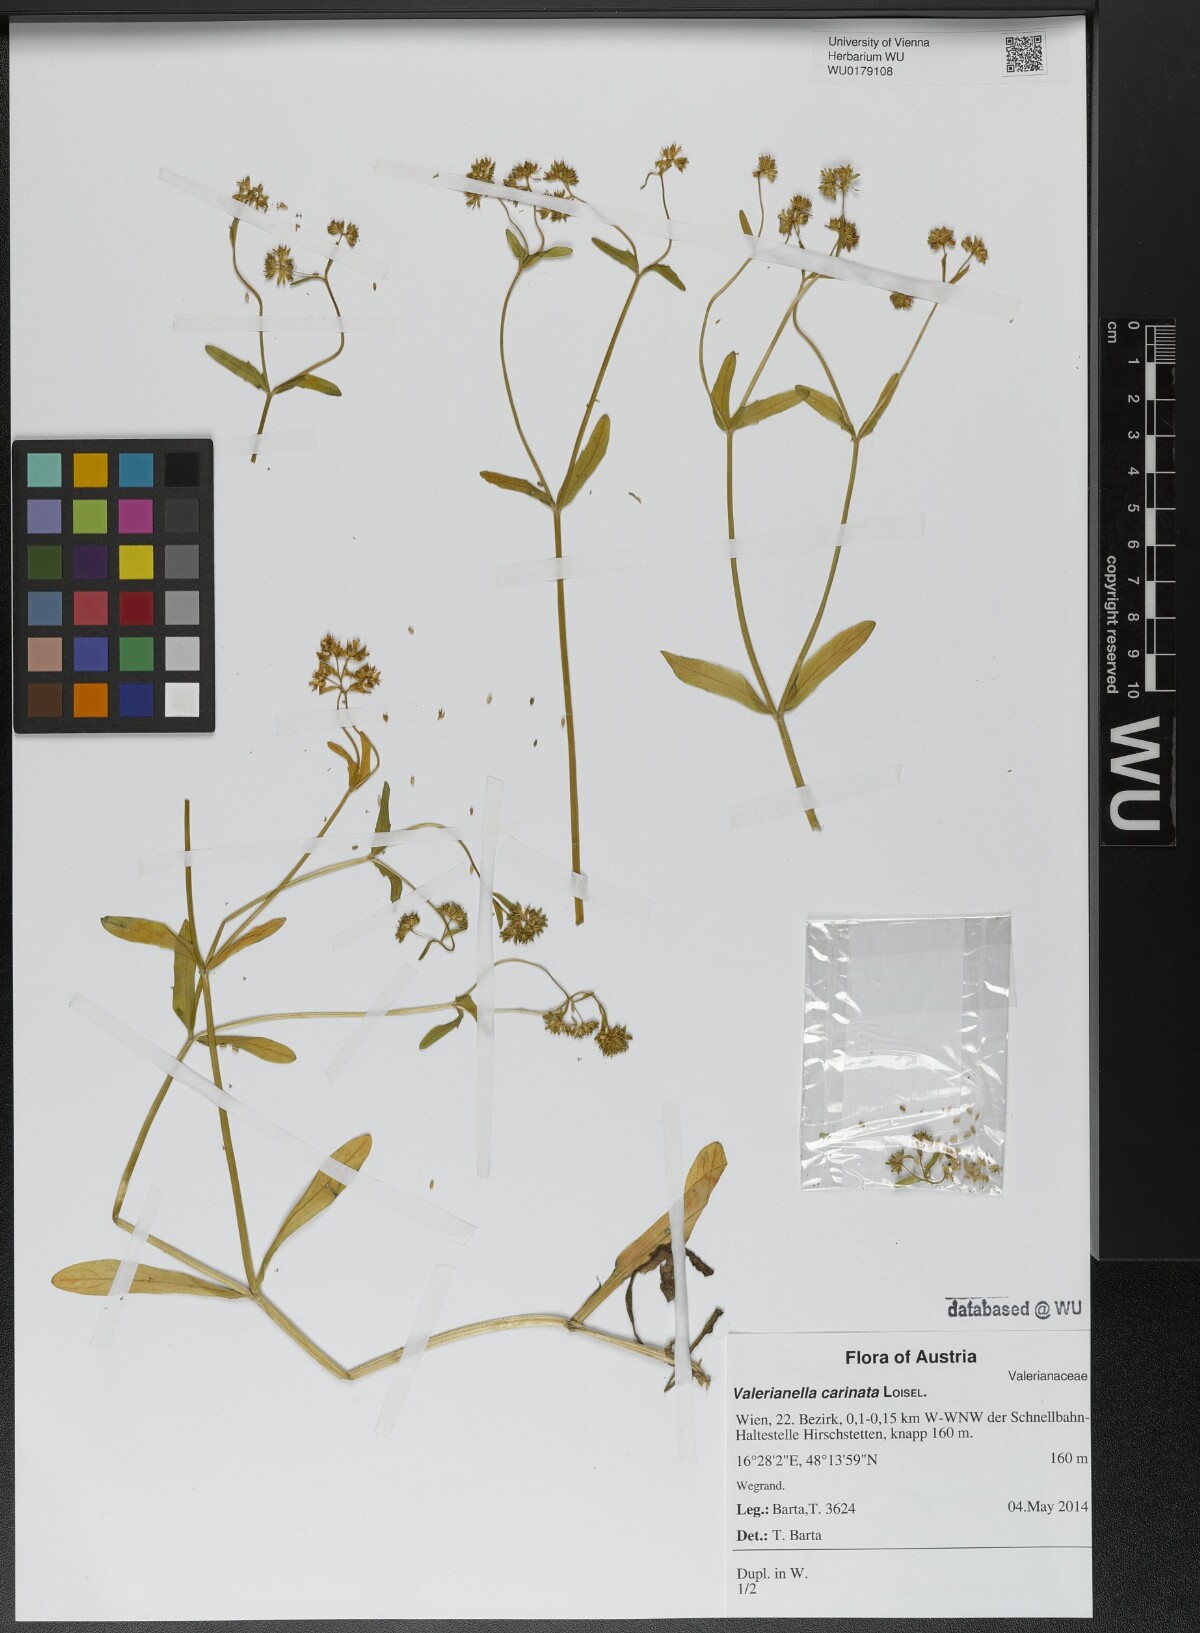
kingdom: Plantae
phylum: Tracheophyta
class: Magnoliopsida
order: Dipsacales
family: Caprifoliaceae
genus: Valerianella
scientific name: Valerianella carinata
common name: Keeled-fruited cornsalad
